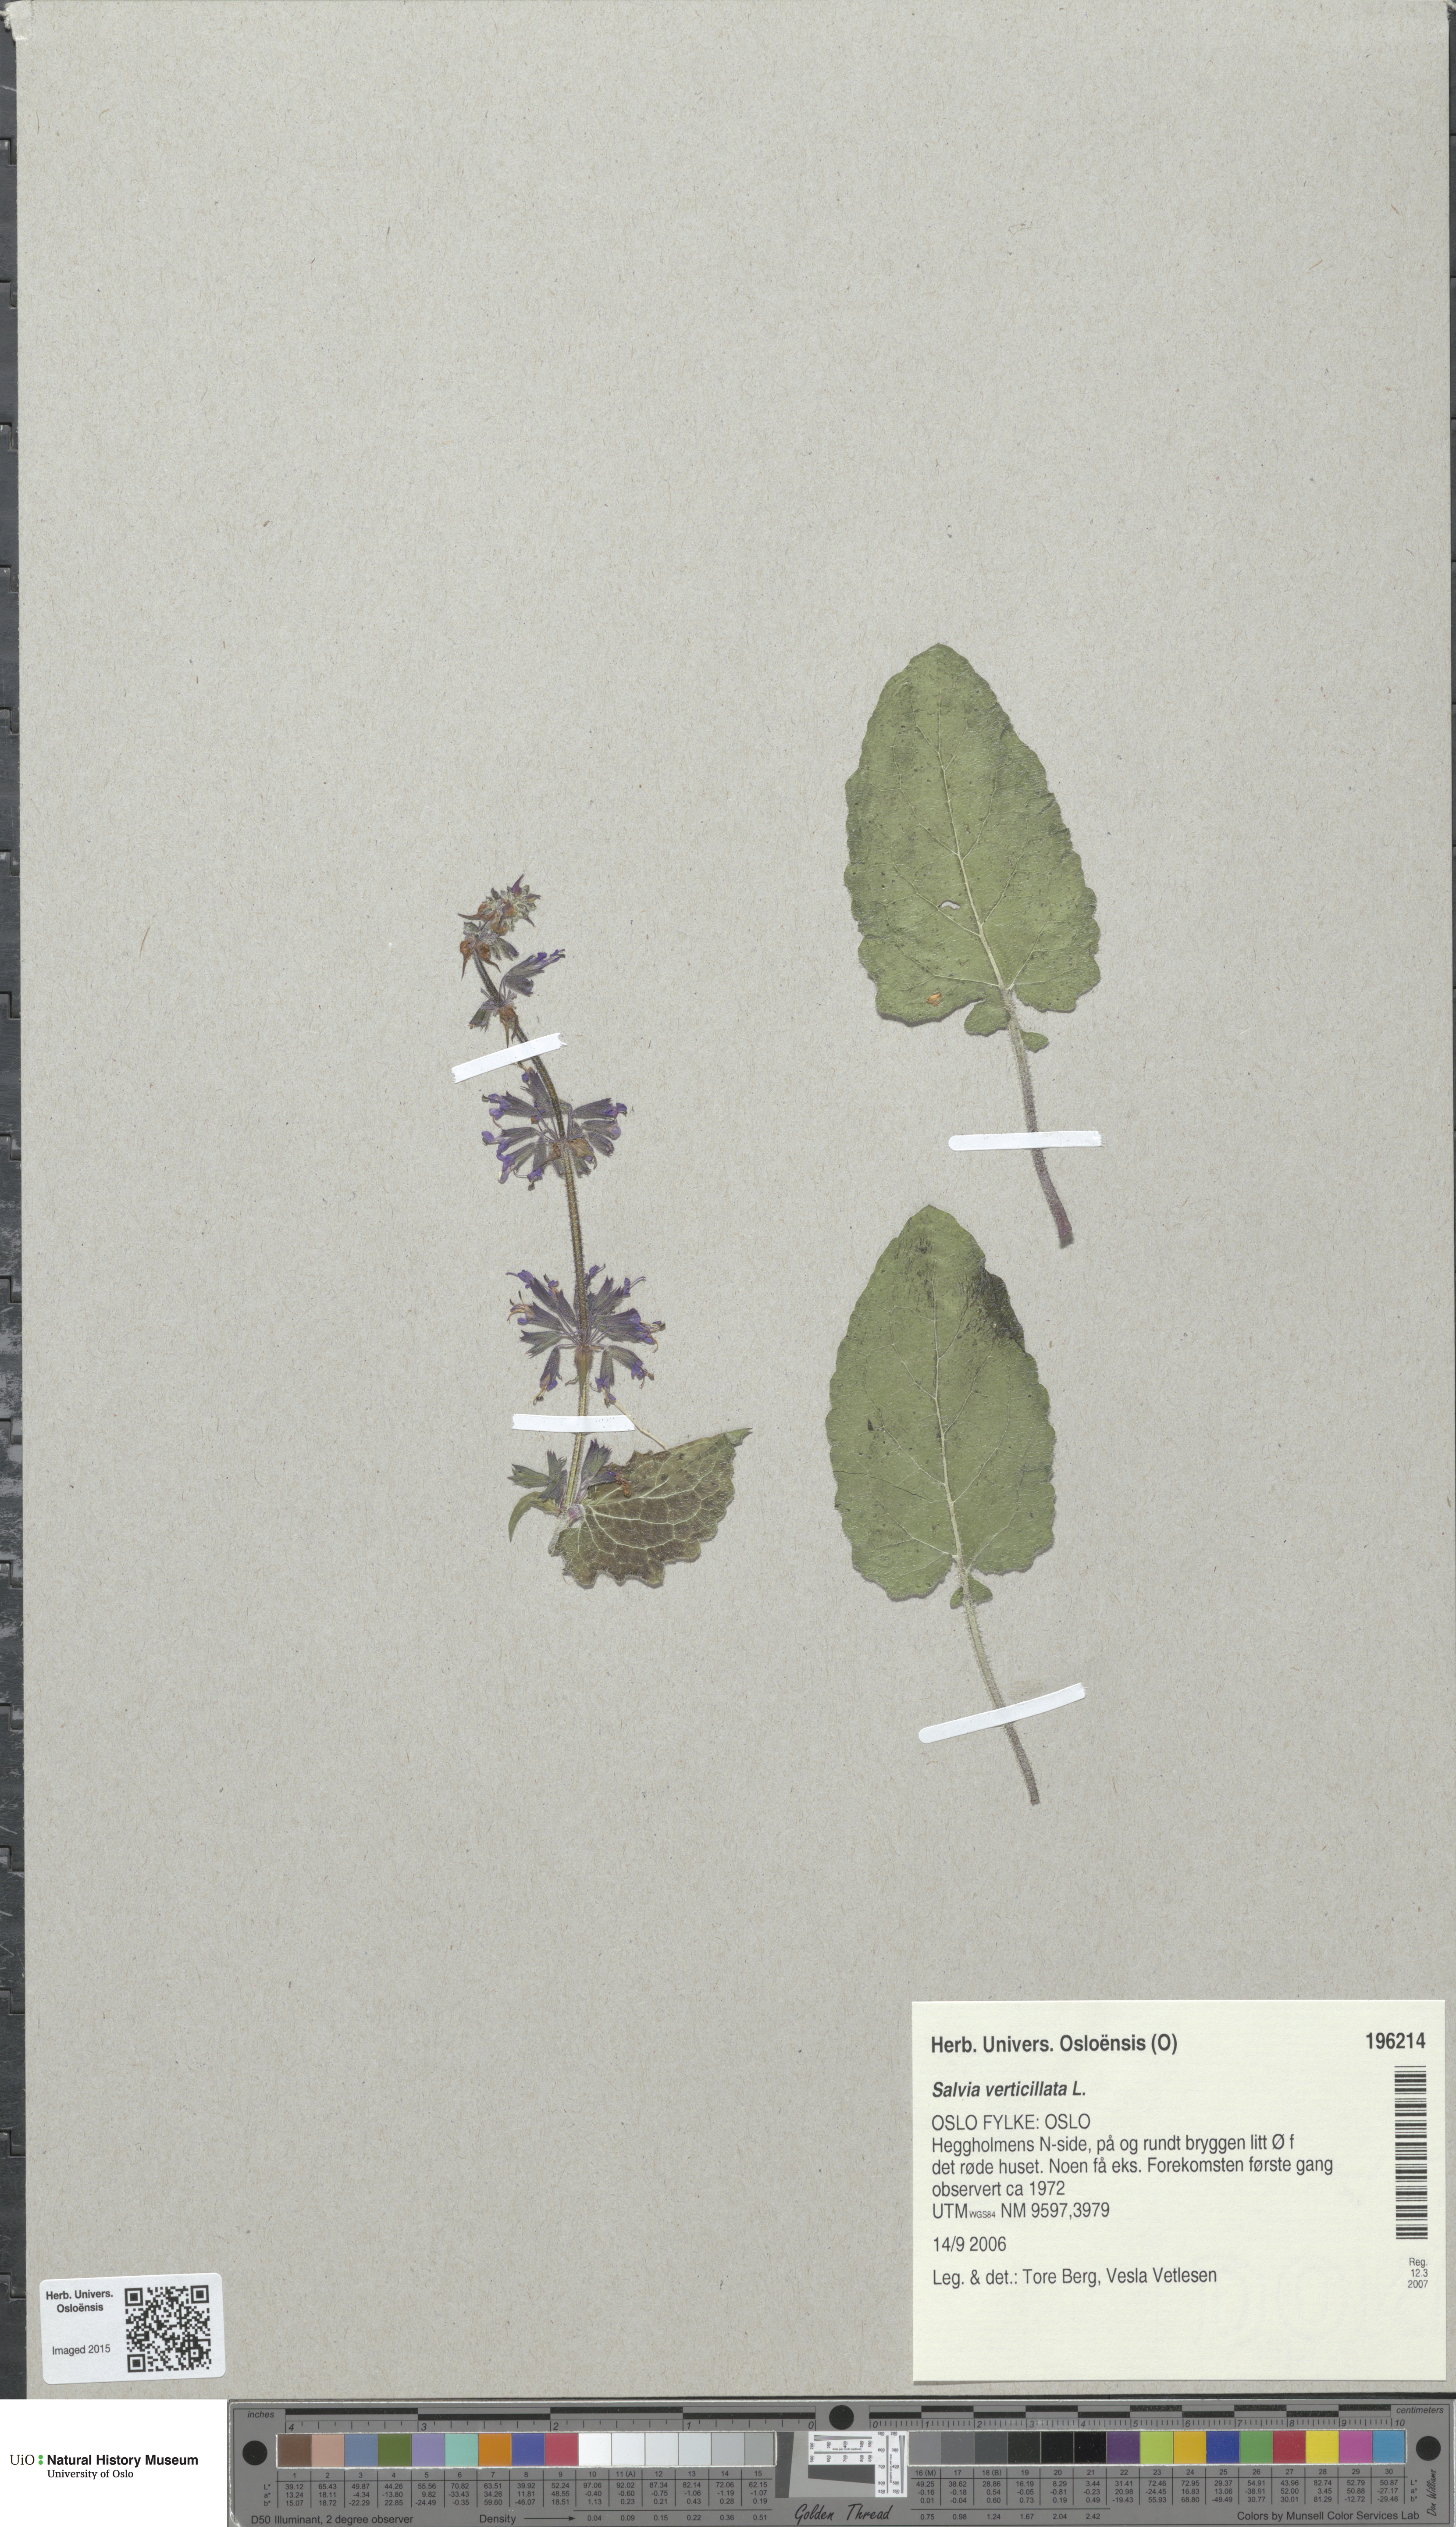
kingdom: Plantae
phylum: Tracheophyta
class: Magnoliopsida
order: Lamiales
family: Lamiaceae
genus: Salvia
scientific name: Salvia verticillata
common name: Whorled clary
